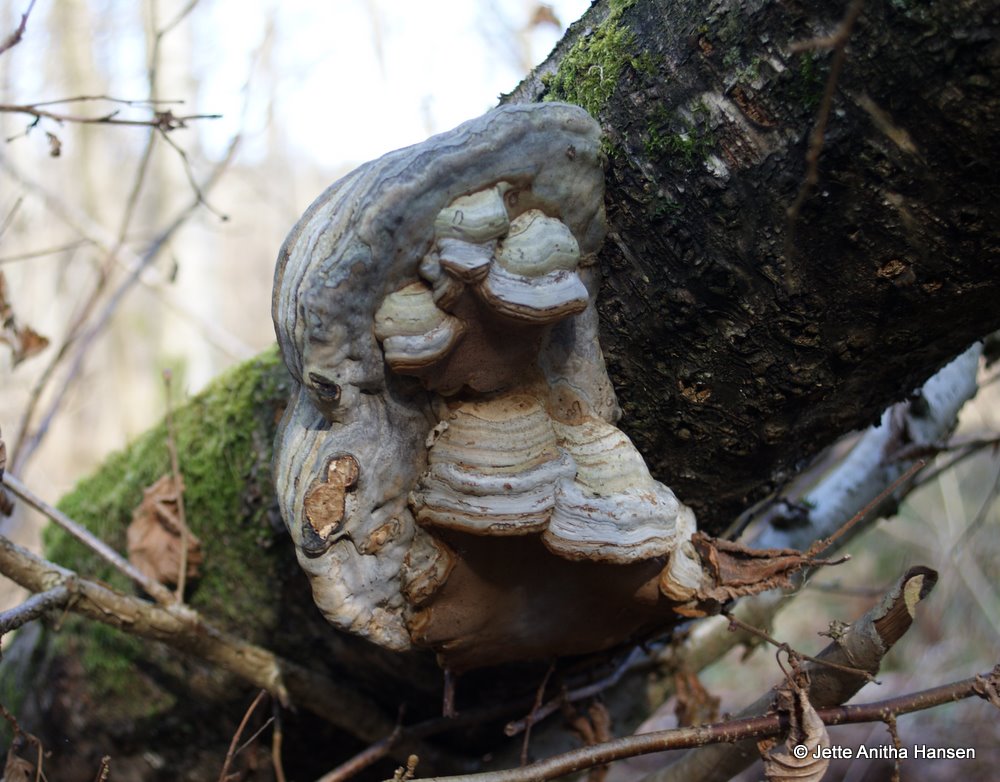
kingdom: Fungi
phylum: Basidiomycota
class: Agaricomycetes
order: Polyporales
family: Polyporaceae
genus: Fomes
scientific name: Fomes fomentarius
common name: tøndersvamp
